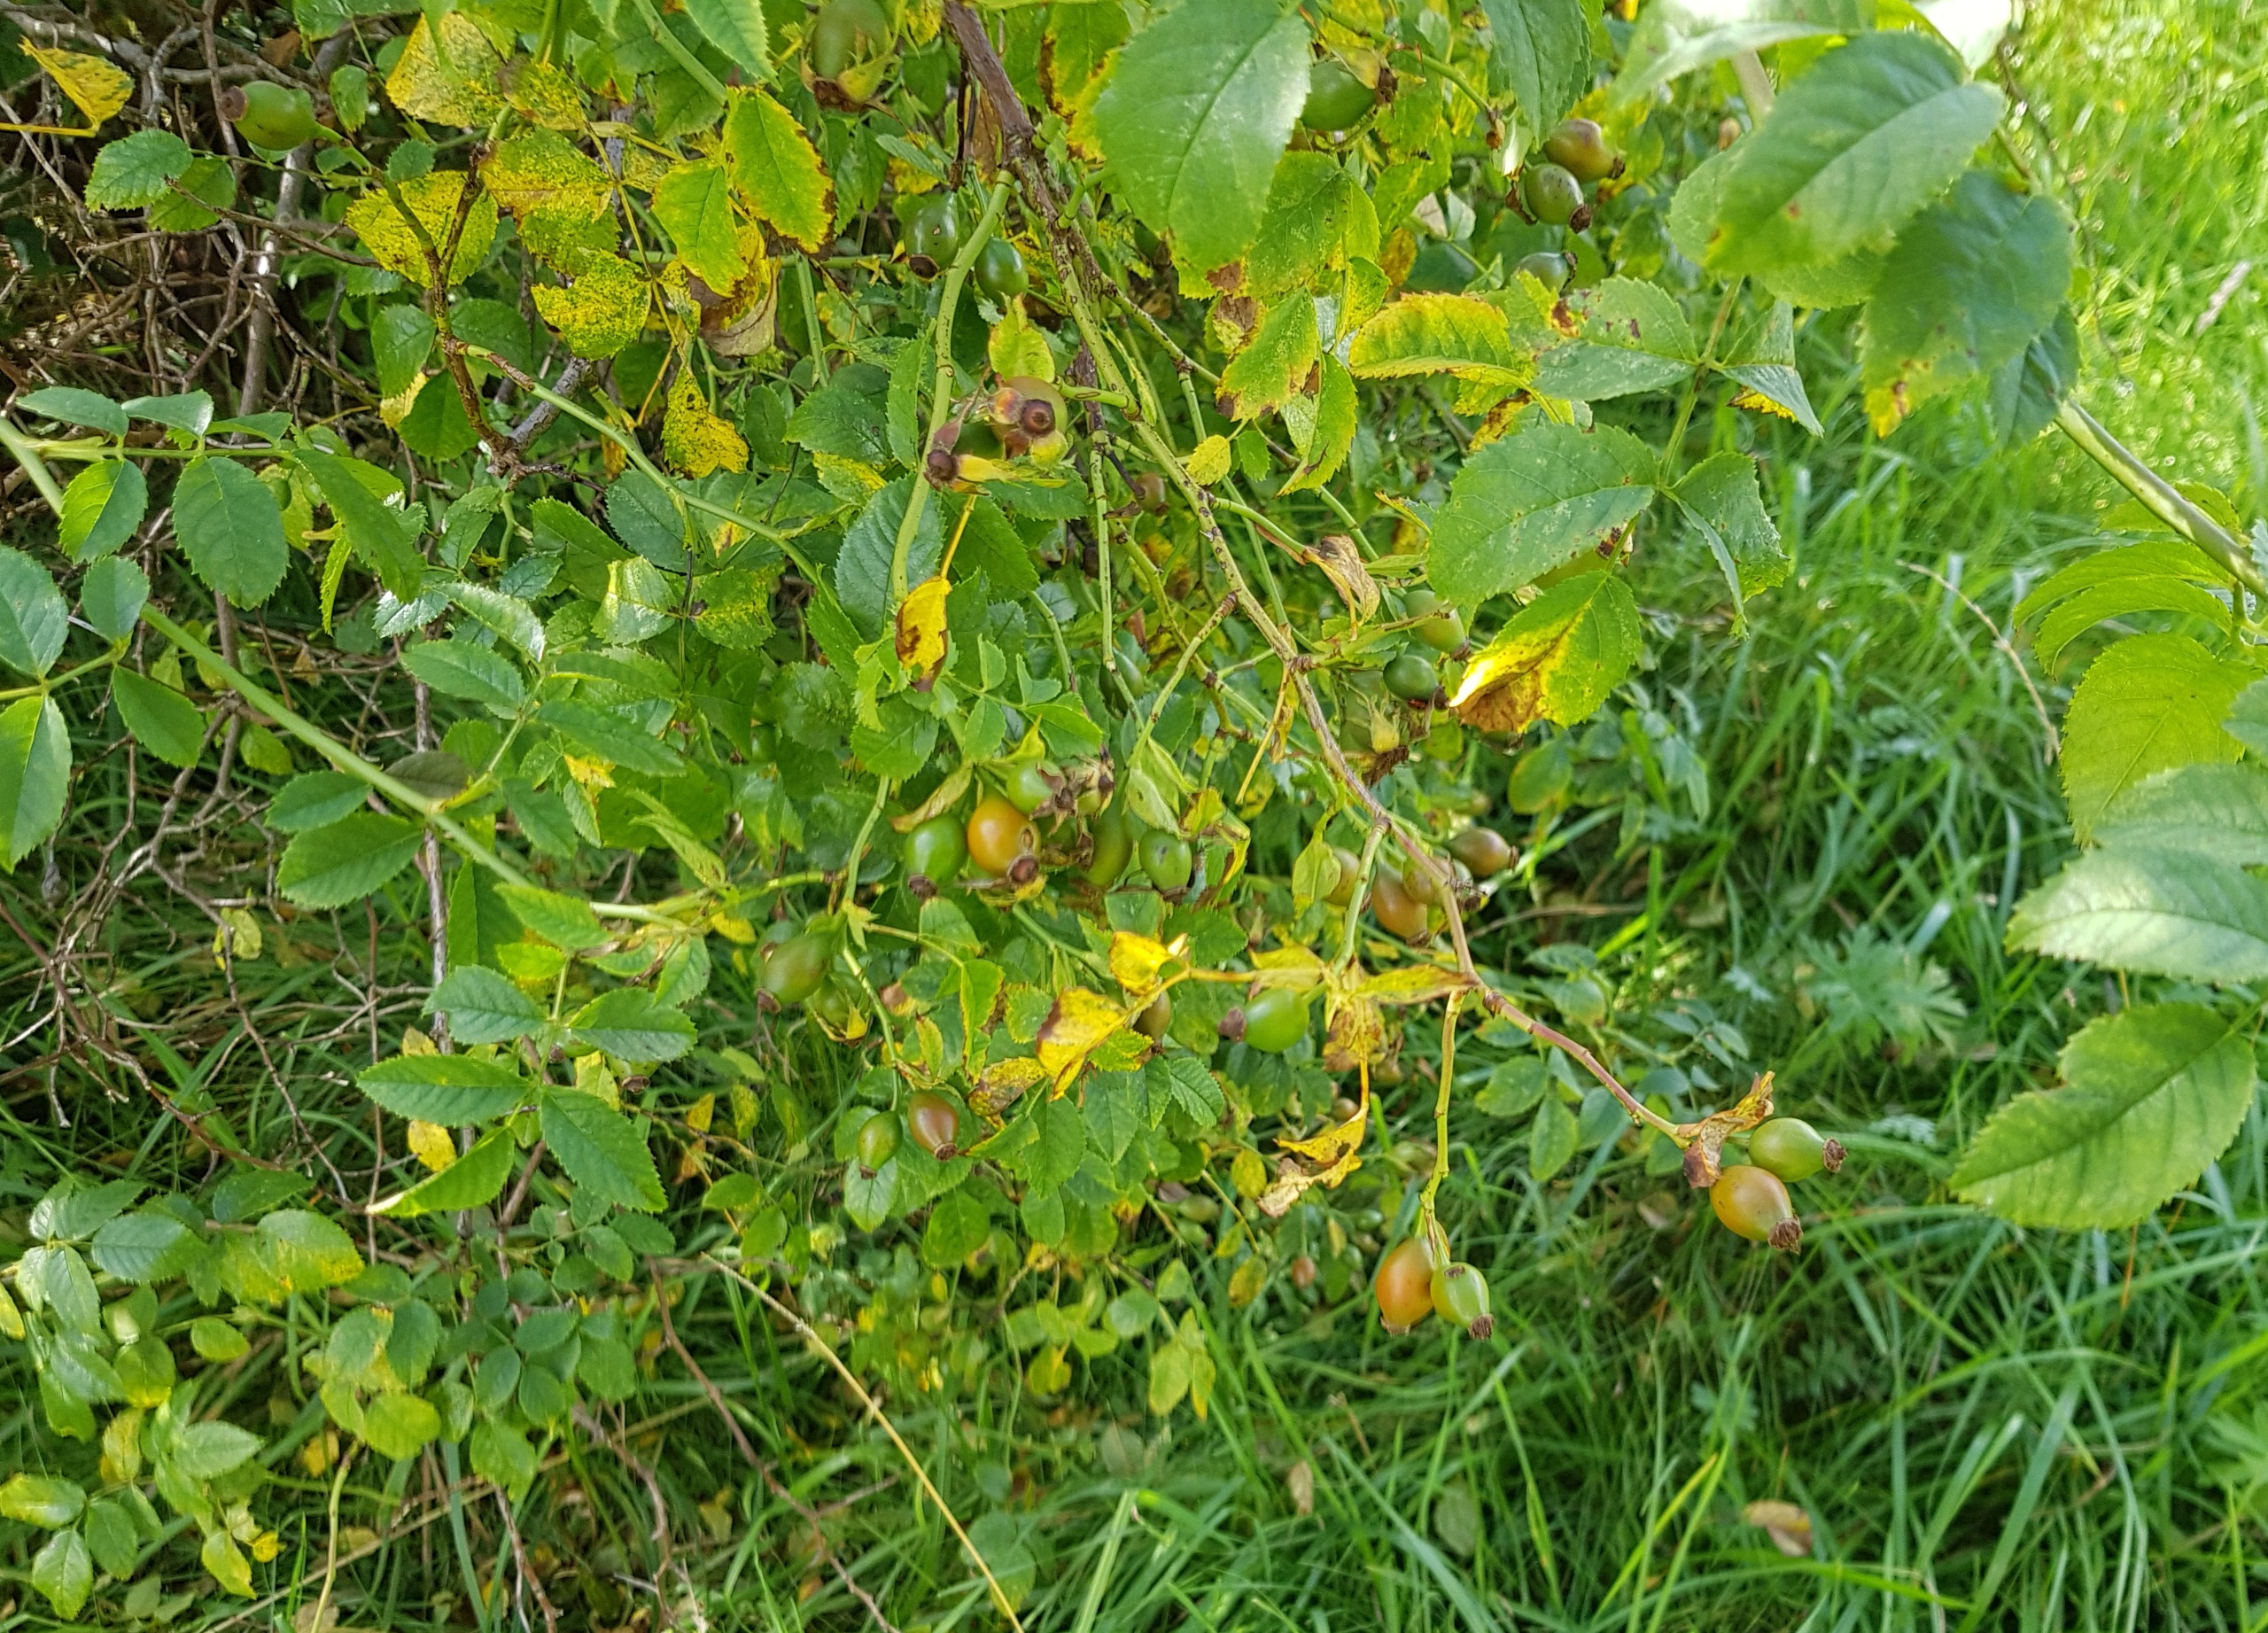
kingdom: Plantae
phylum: Tracheophyta
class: Magnoliopsida
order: Rosales
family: Rosaceae
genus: Rosa
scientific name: Rosa canina
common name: Glat hunde-rose
